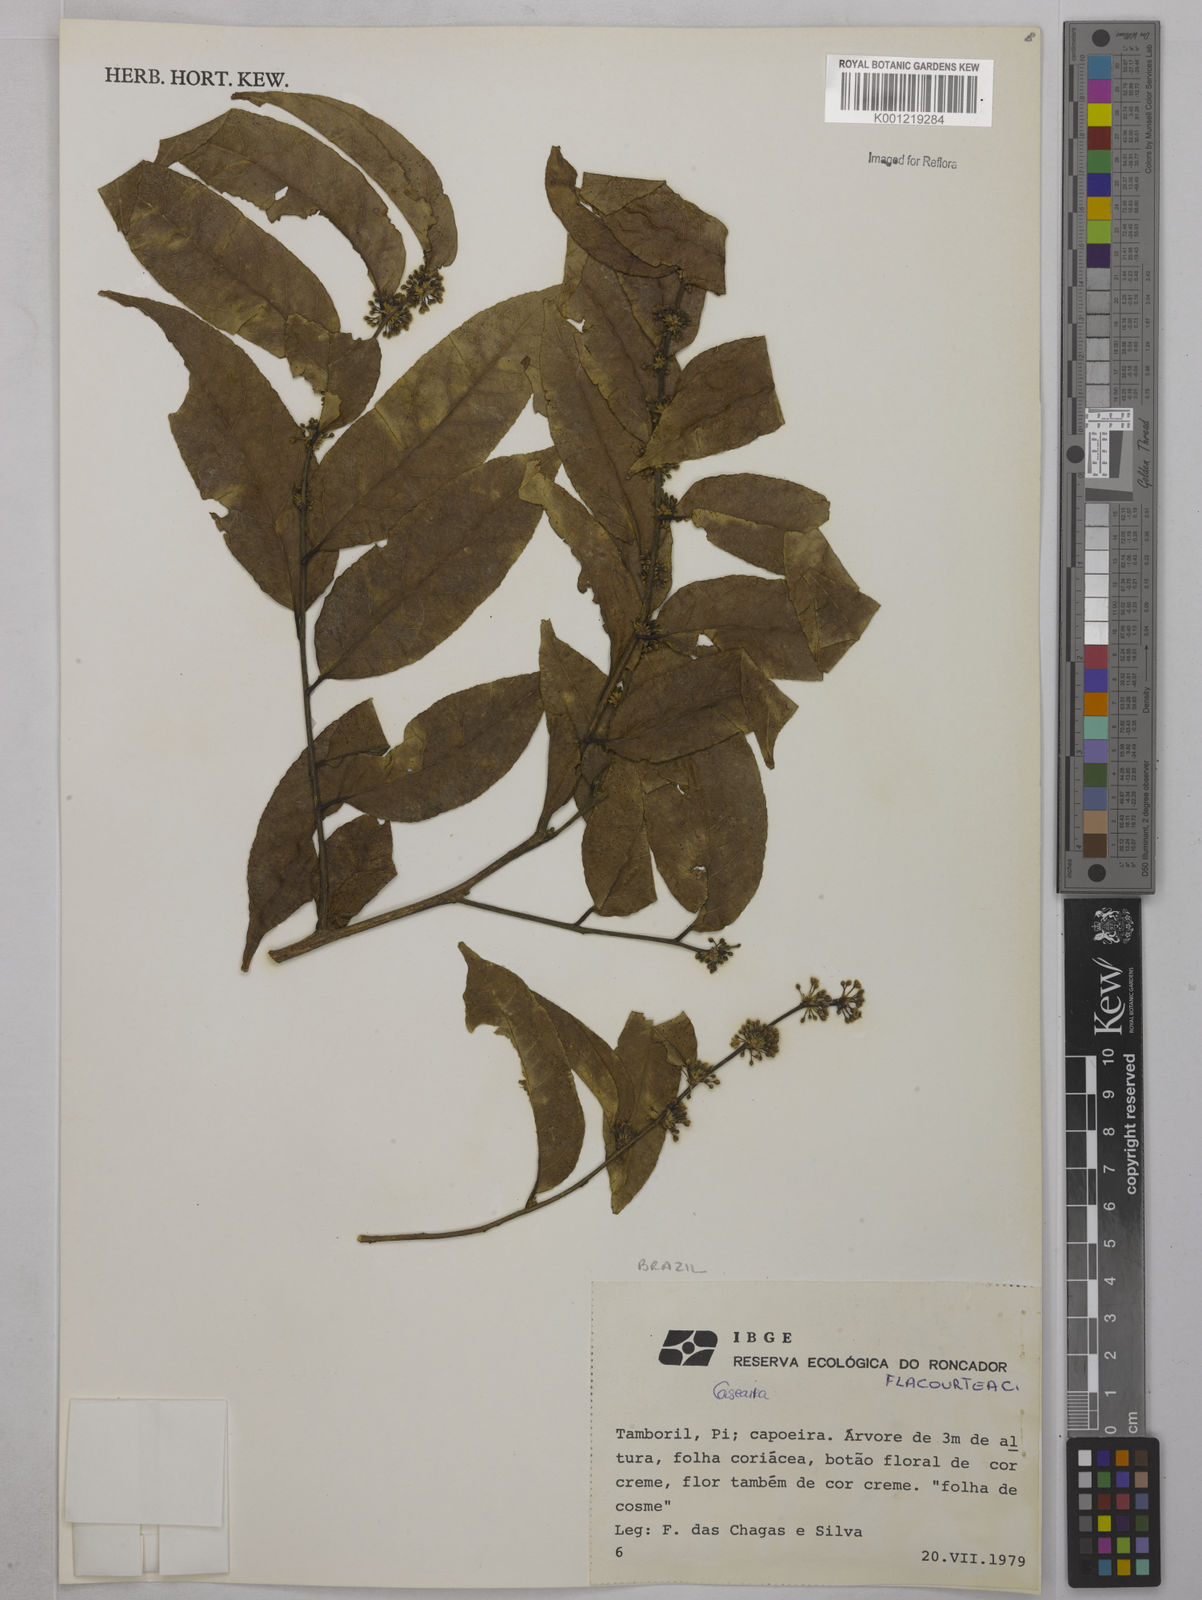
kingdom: Plantae
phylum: Tracheophyta
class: Magnoliopsida
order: Malpighiales
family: Salicaceae
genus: Casearia
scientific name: Casearia
